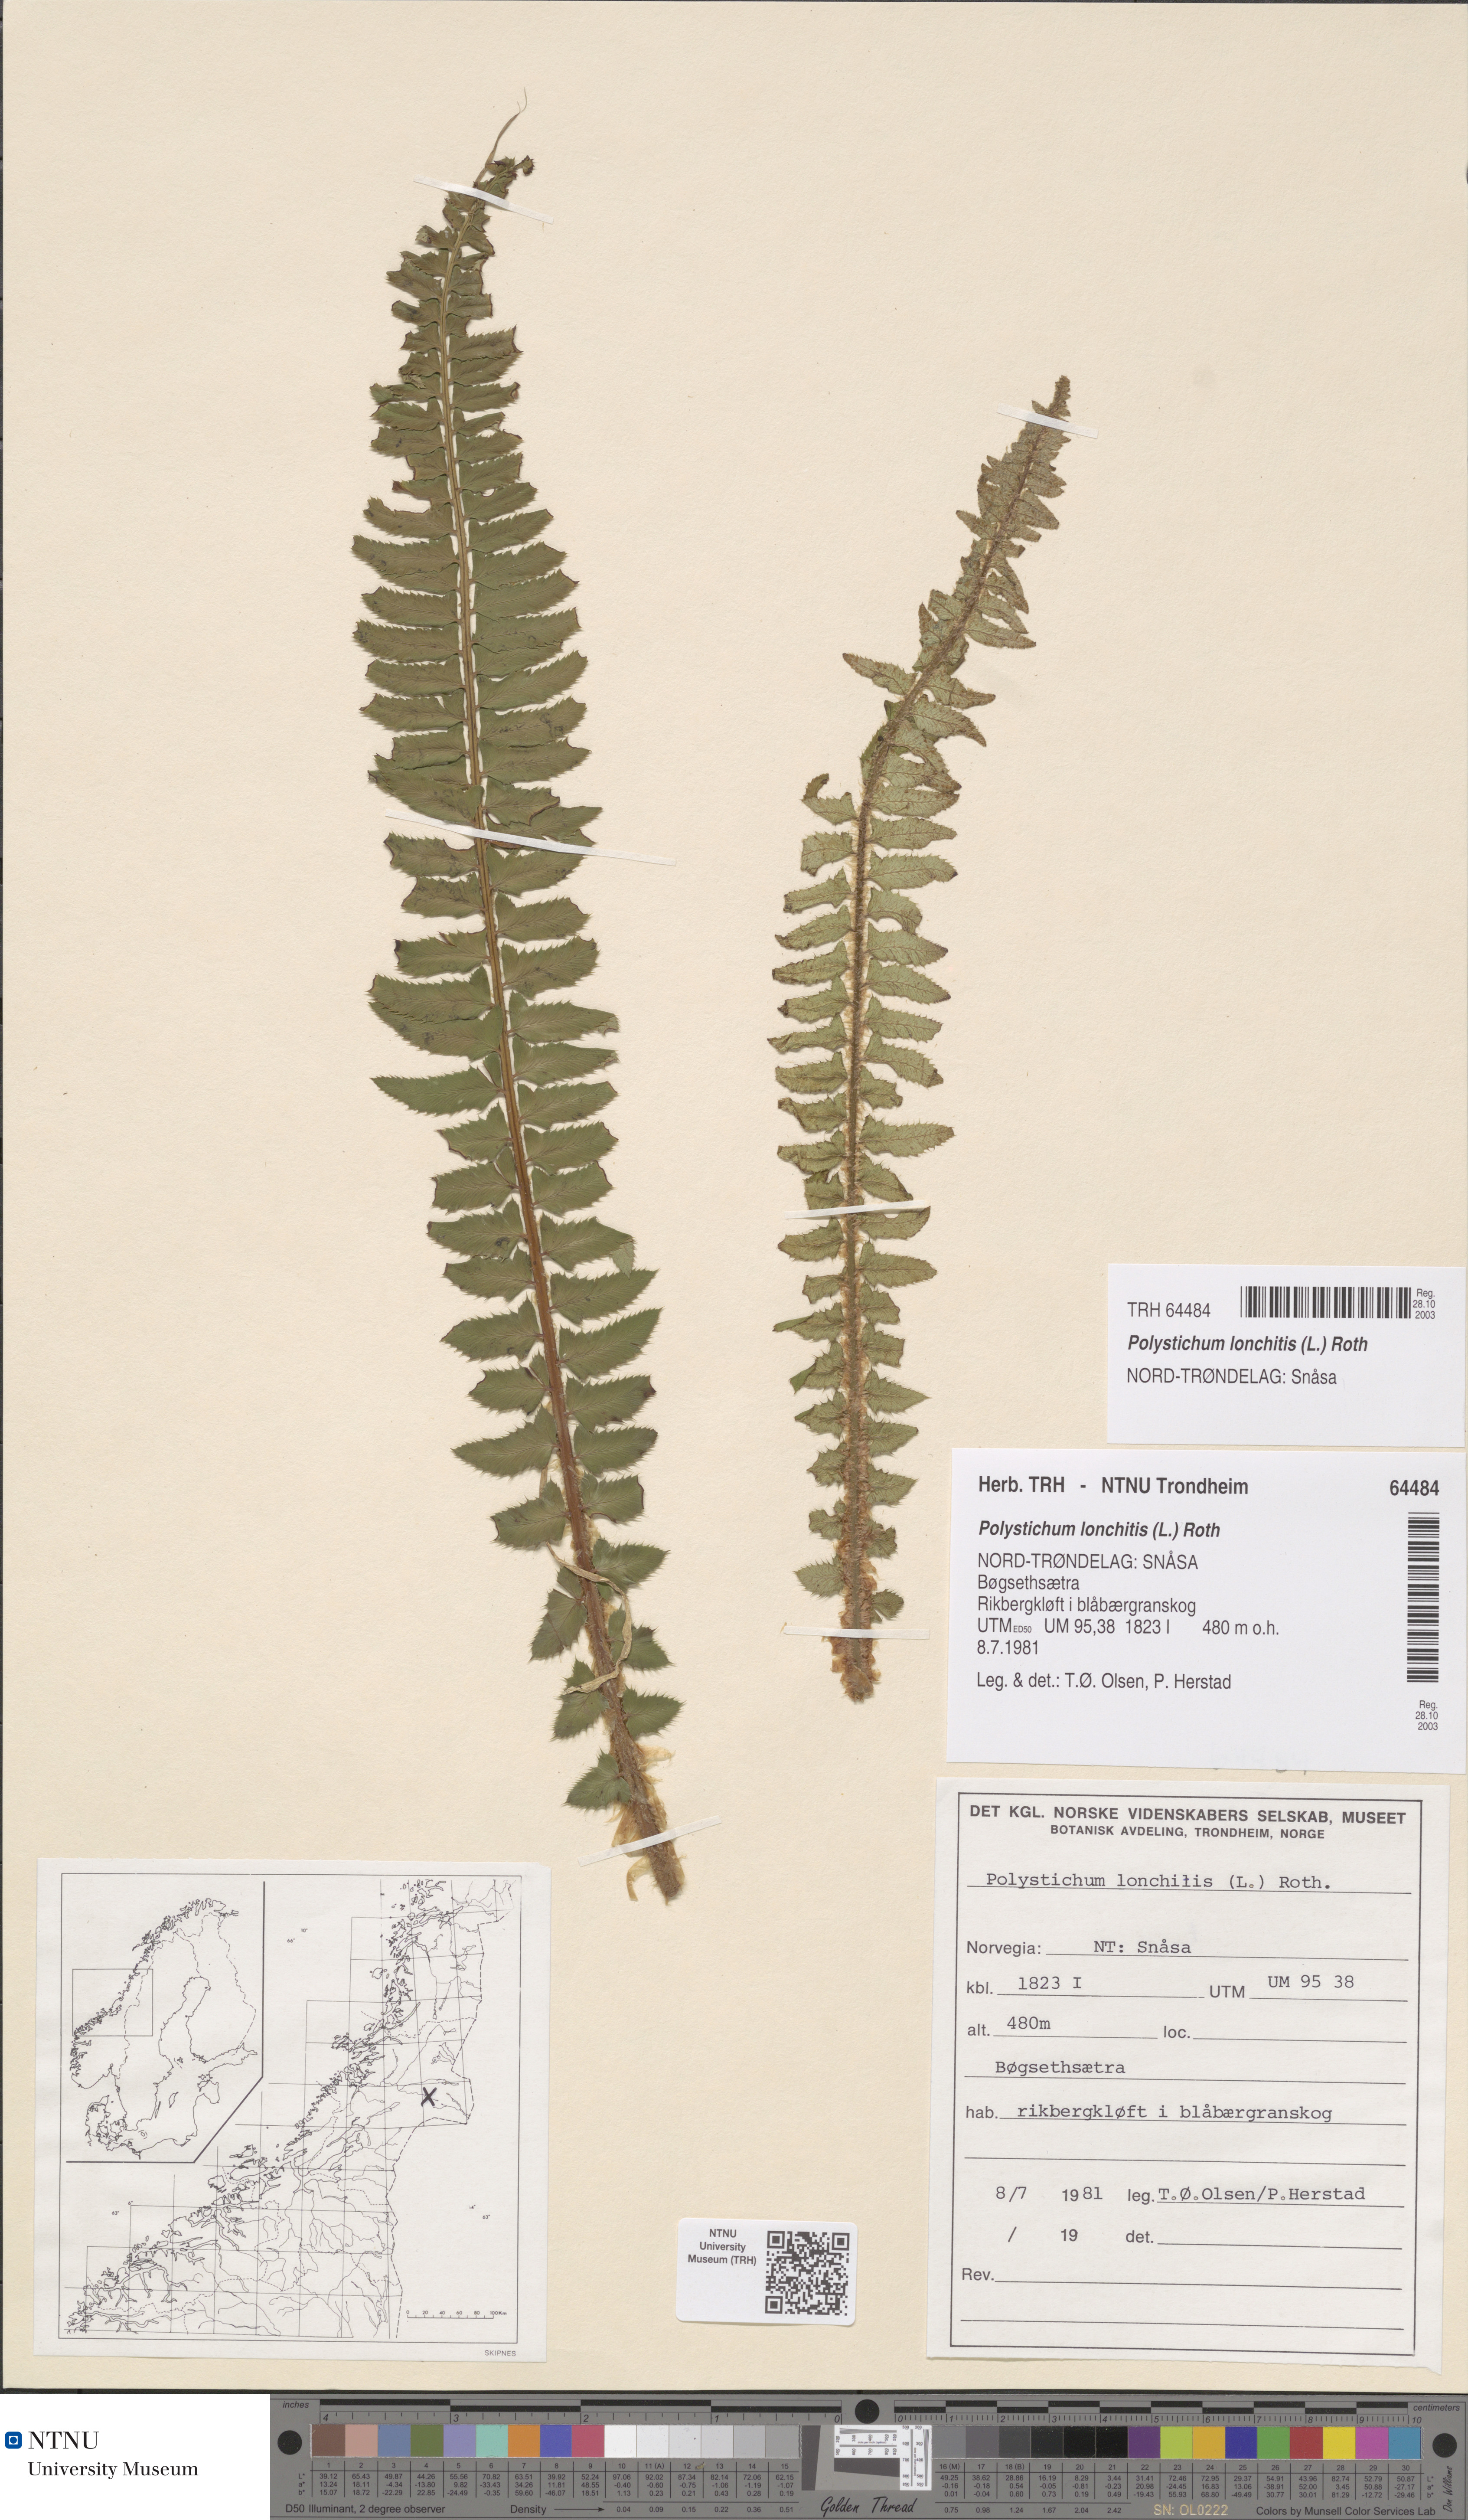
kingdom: Plantae
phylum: Tracheophyta
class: Polypodiopsida
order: Polypodiales
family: Dryopteridaceae
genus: Polystichum
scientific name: Polystichum lonchitis
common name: Holly fern
